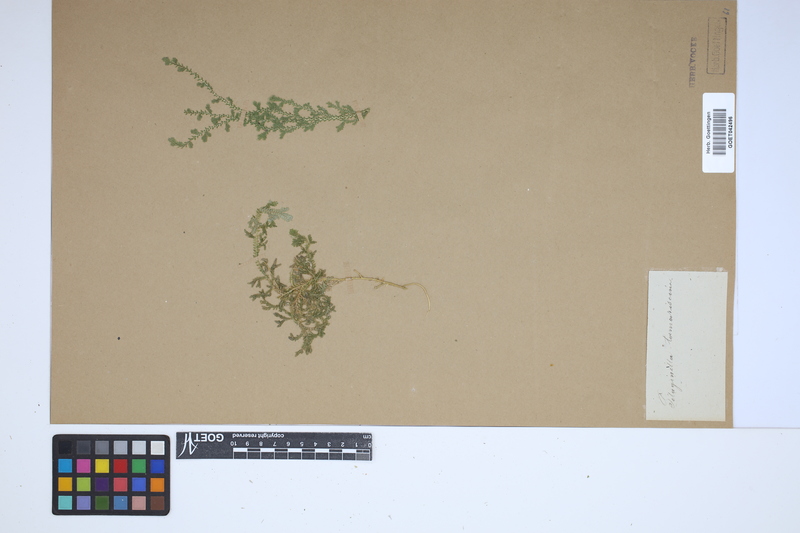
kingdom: Plantae
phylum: Tracheophyta
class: Lycopodiopsida
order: Selaginellales
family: Selaginellaceae
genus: Selaginella
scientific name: Selaginella involvens
